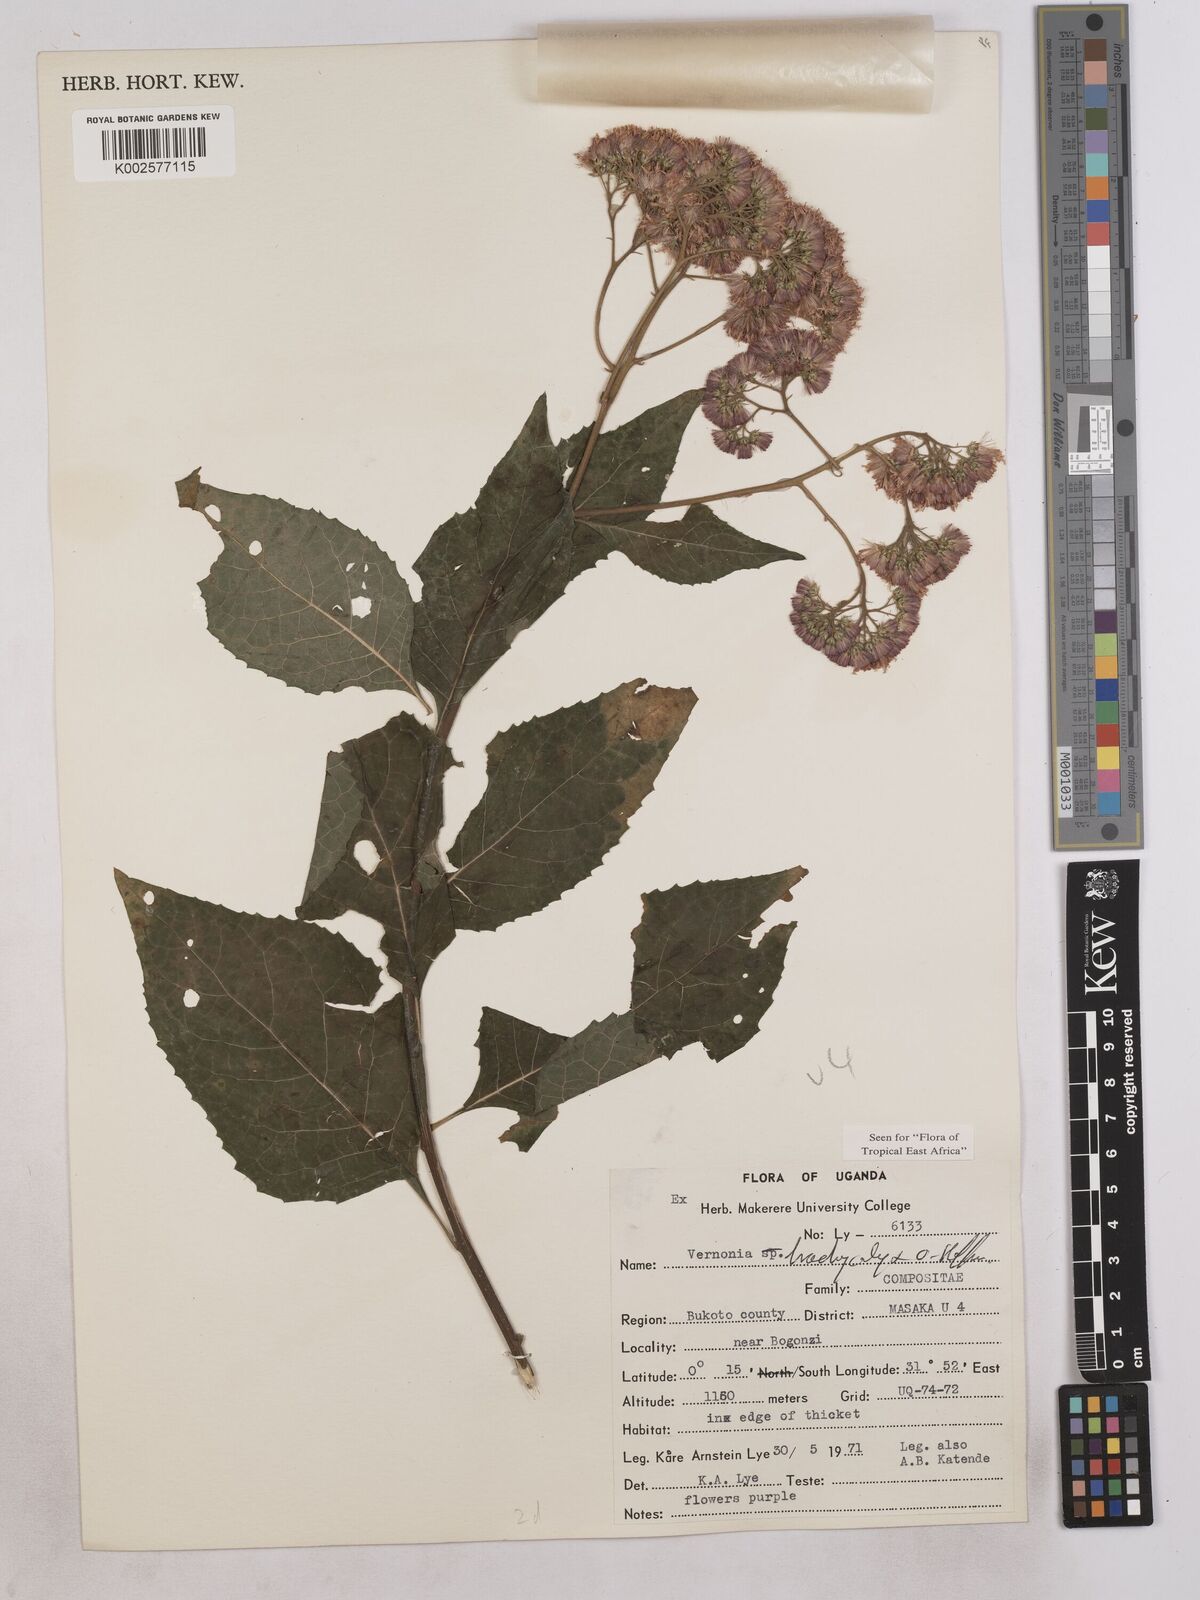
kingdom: Plantae
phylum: Tracheophyta
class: Magnoliopsida
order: Asterales
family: Asteraceae
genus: Hoffmannanthus
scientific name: Hoffmannanthus abbotianus
